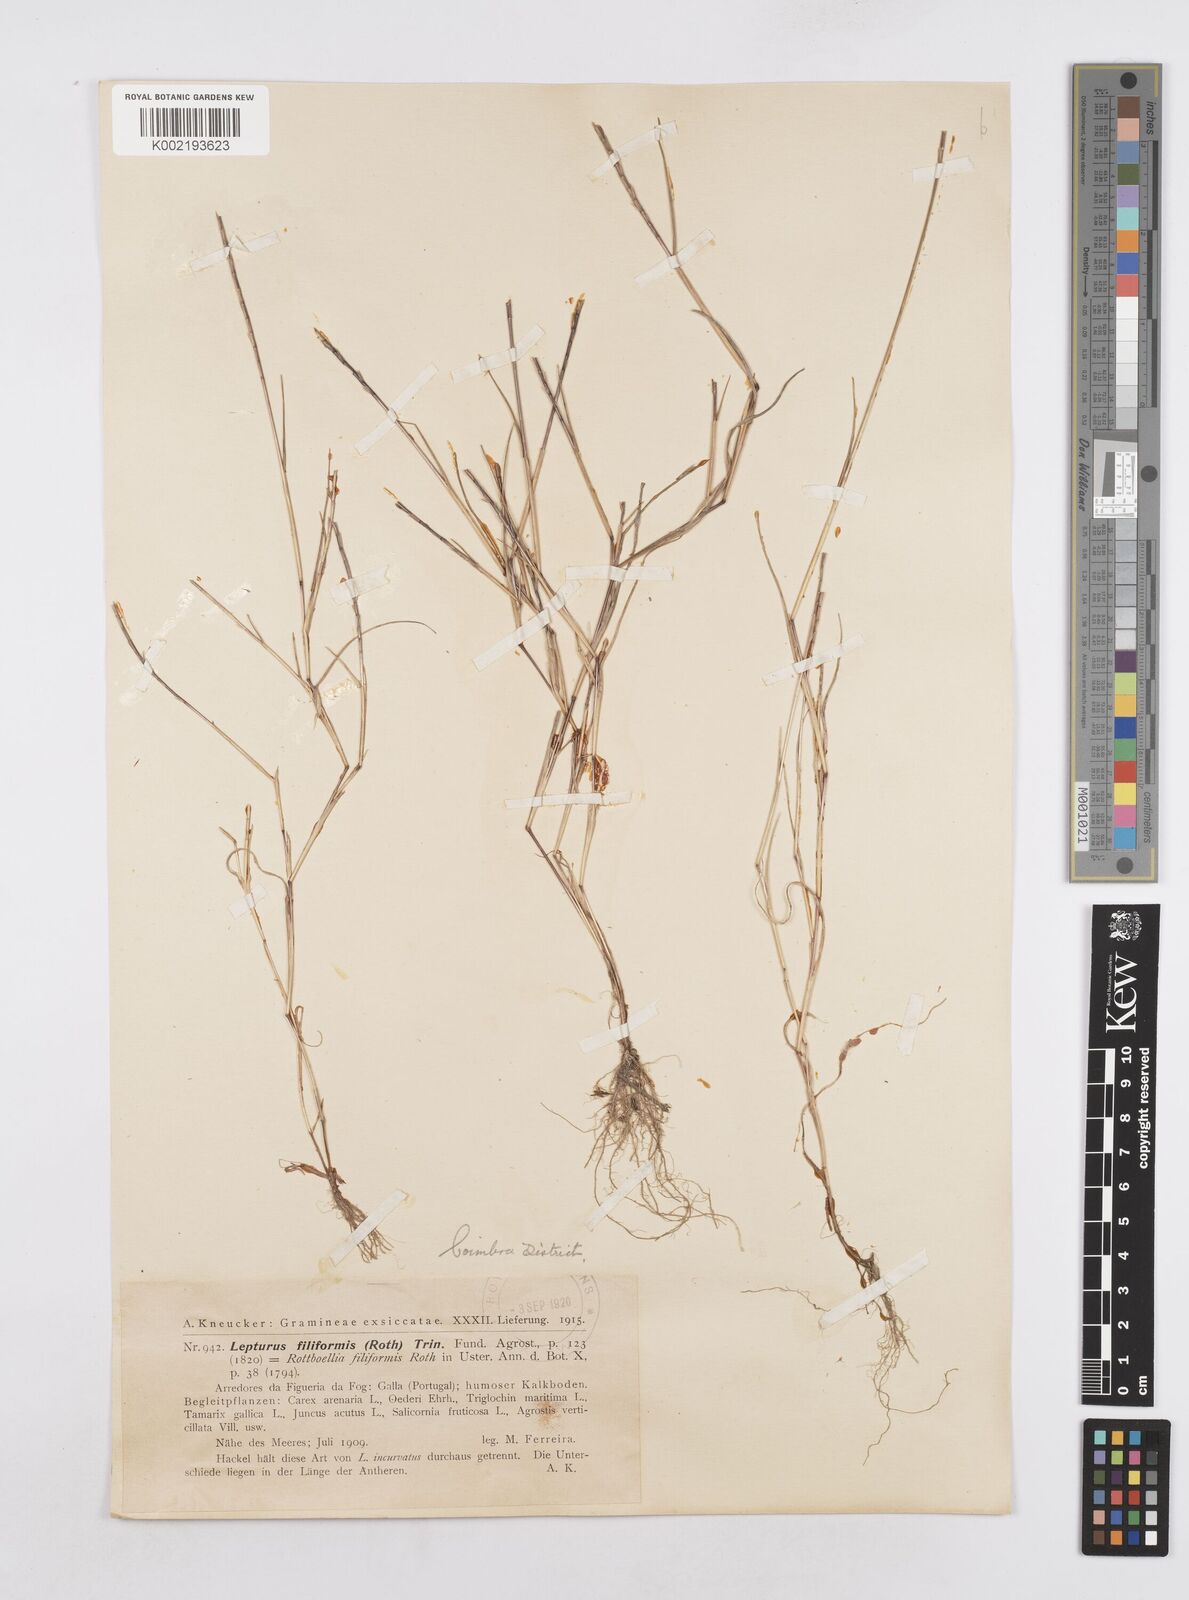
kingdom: Plantae
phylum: Tracheophyta
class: Liliopsida
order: Poales
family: Poaceae
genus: Parapholis
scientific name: Parapholis filiformis
